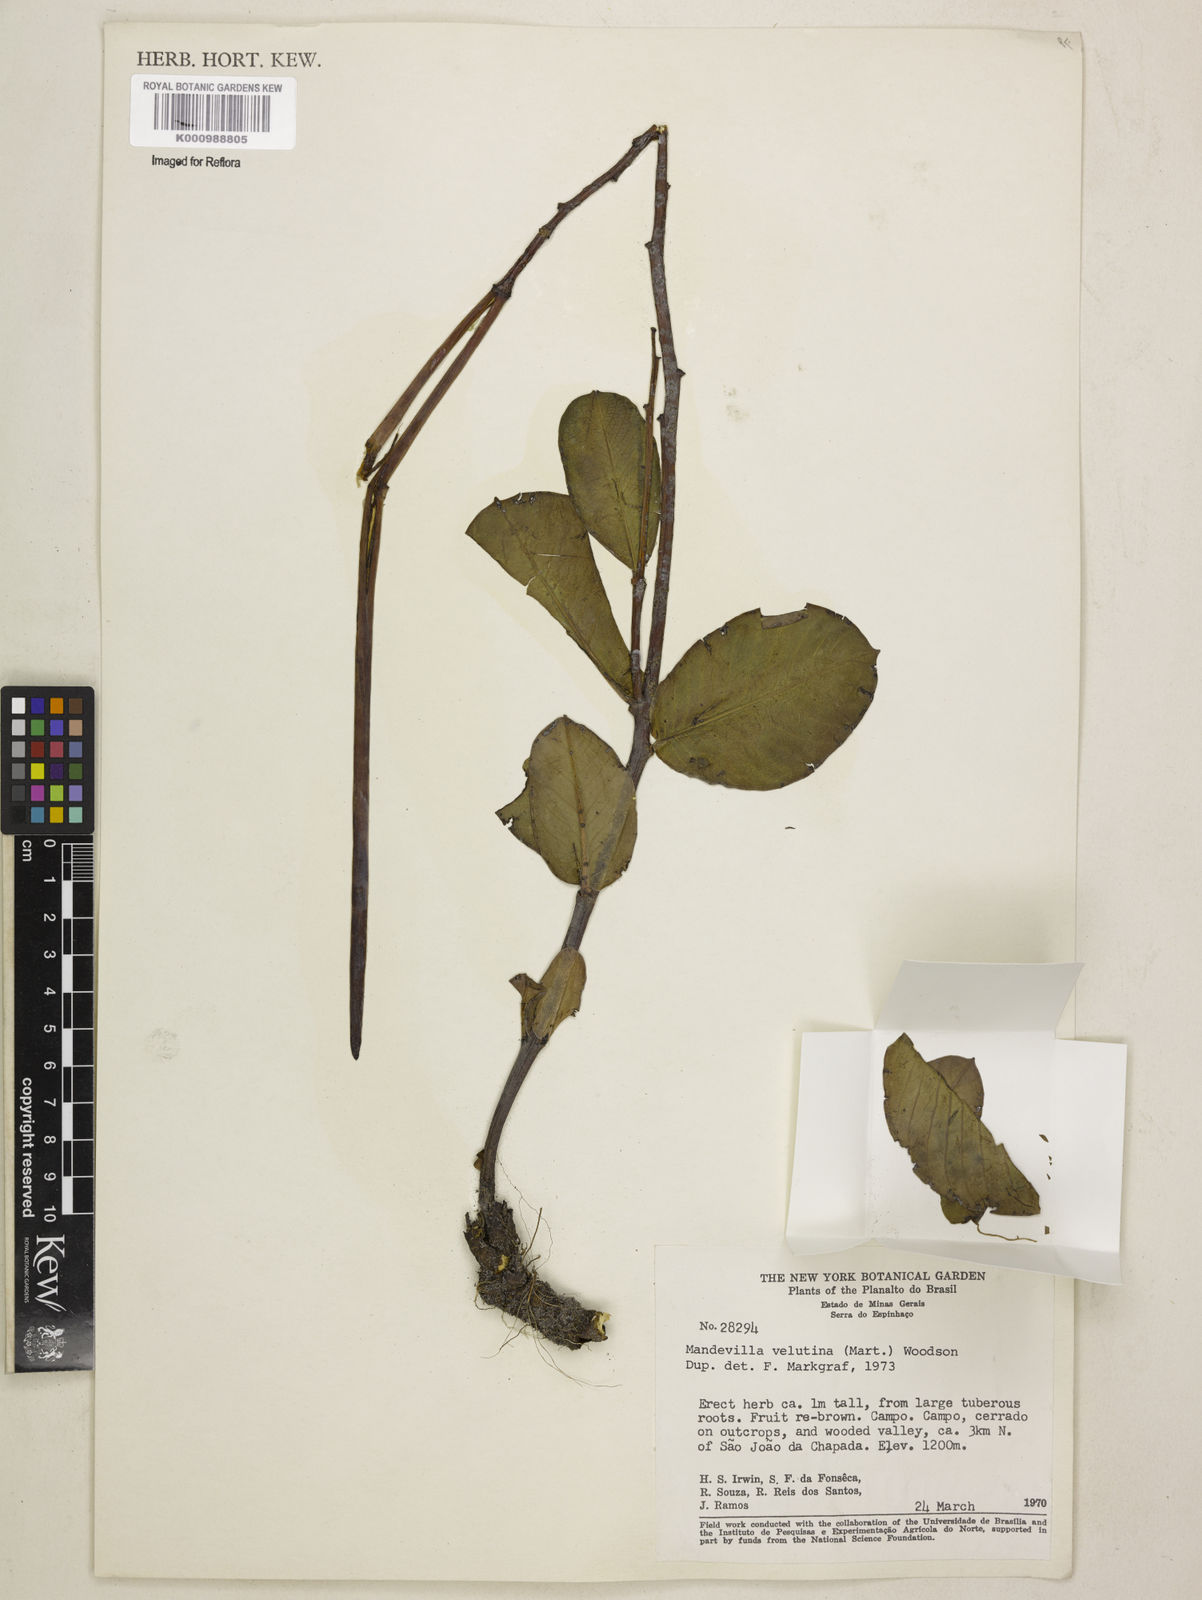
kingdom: Plantae
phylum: Tracheophyta
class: Magnoliopsida
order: Gentianales
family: Apocynaceae
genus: Mandevilla
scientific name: Mandevilla pohliana
